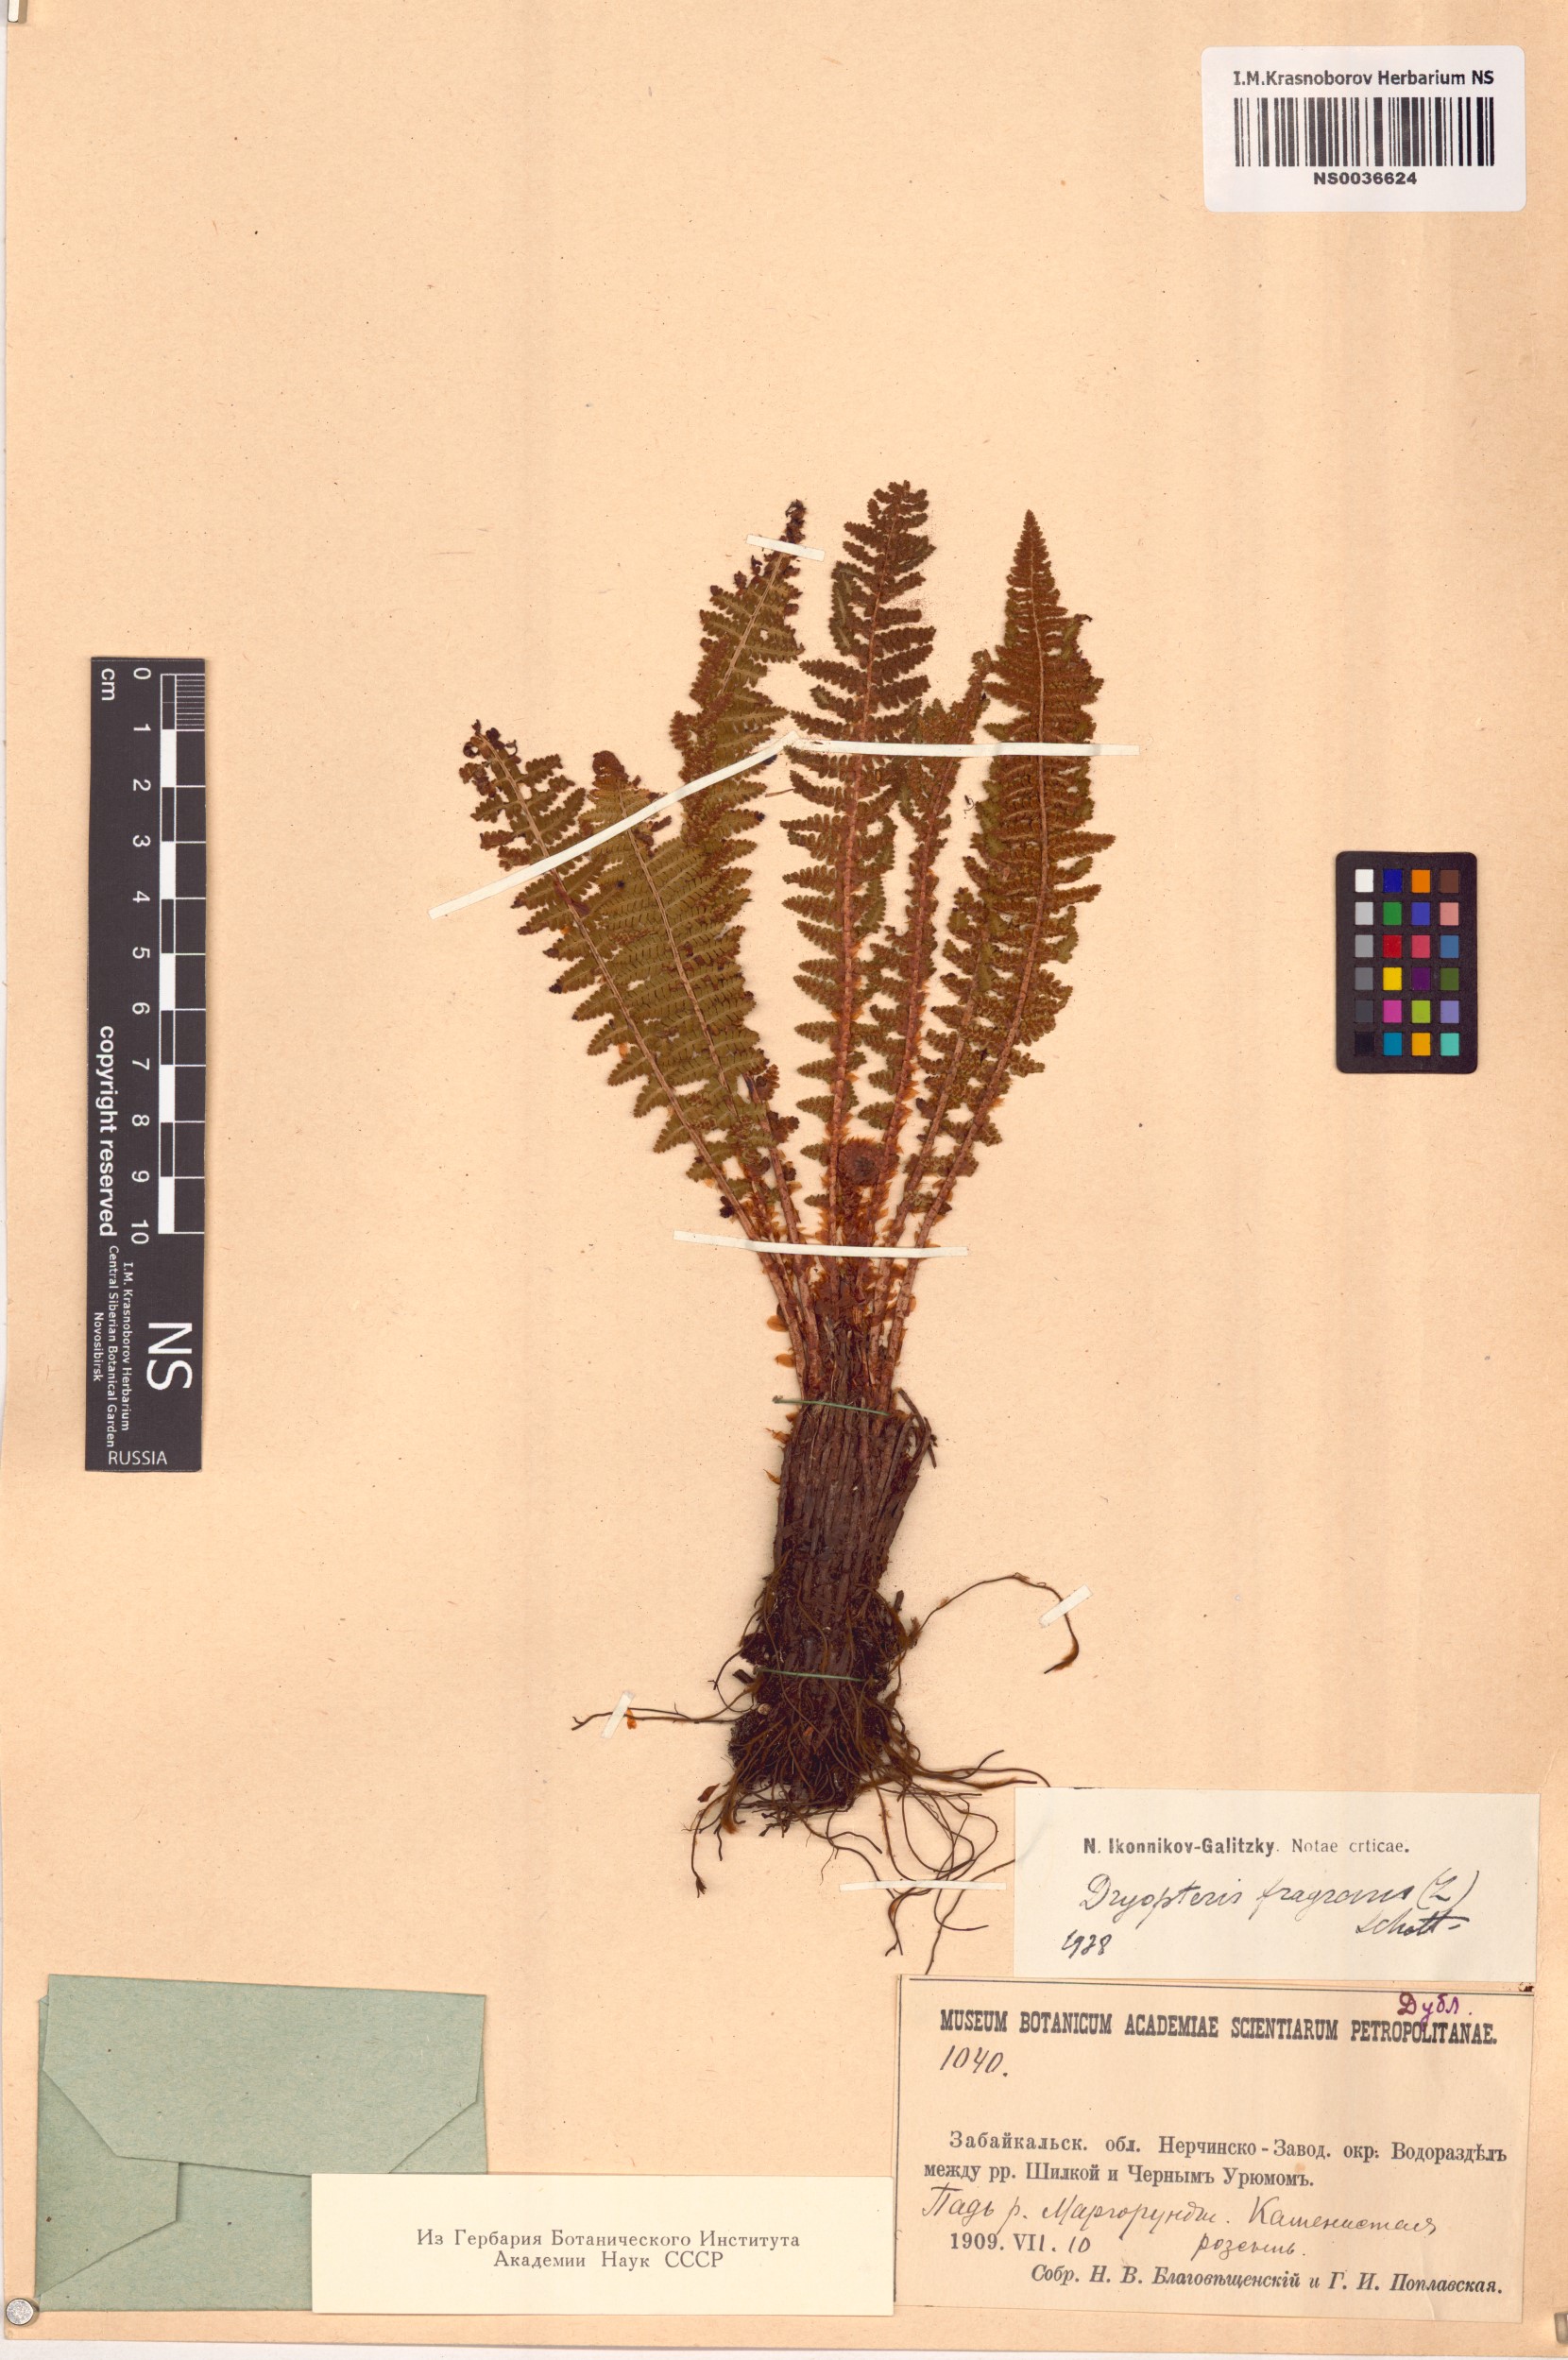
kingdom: Plantae
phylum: Tracheophyta
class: Polypodiopsida
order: Polypodiales
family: Dryopteridaceae
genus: Dryopteris
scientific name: Dryopteris fragrans
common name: Fragrant wood fern
